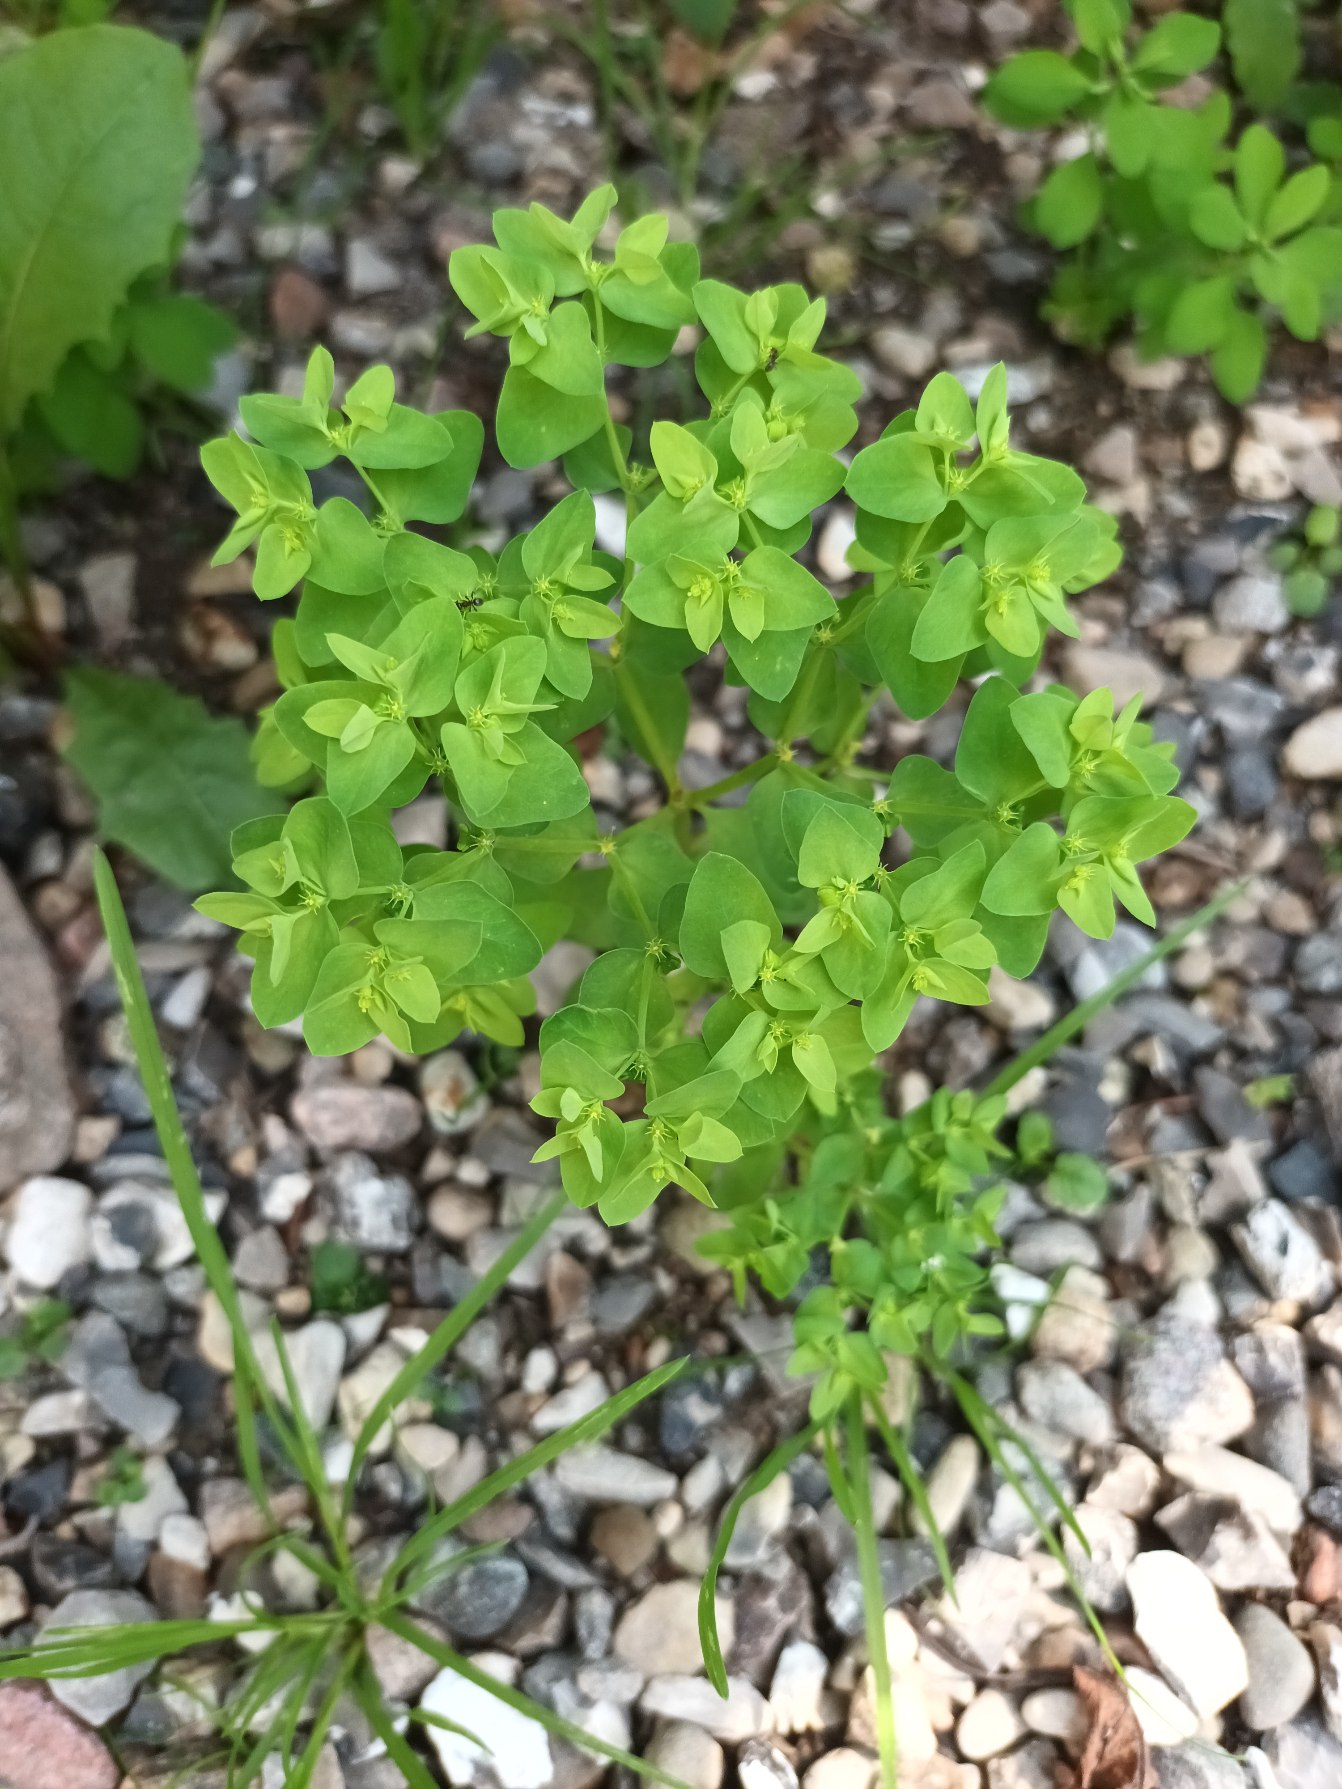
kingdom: Plantae
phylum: Tracheophyta
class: Magnoliopsida
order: Malpighiales
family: Euphorbiaceae
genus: Euphorbia
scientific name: Euphorbia peplus
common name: Gaffel-vortemælk
